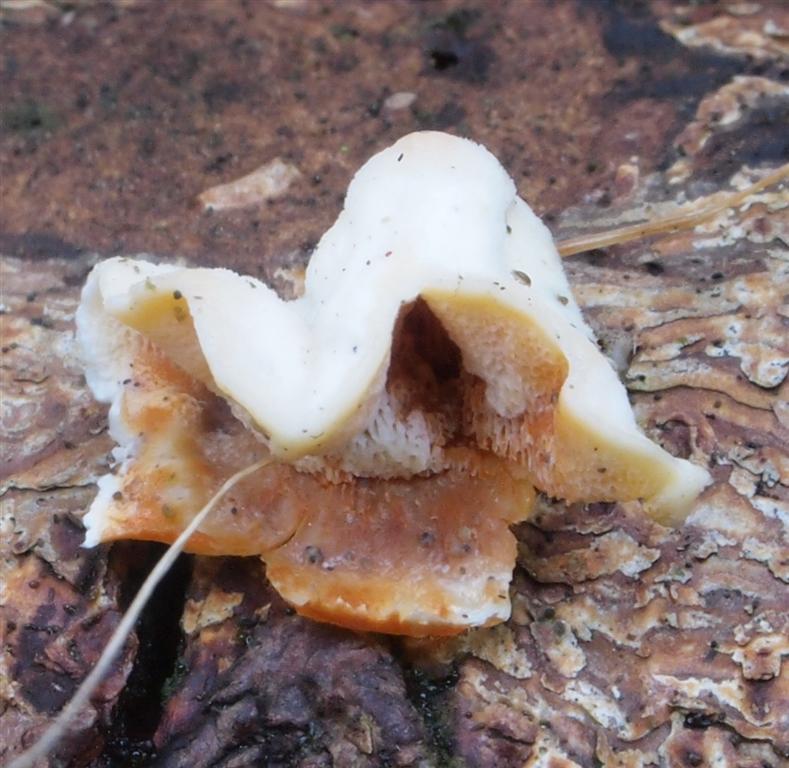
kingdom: Fungi
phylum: Basidiomycota
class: Agaricomycetes
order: Polyporales
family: Incrustoporiaceae
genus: Skeletocutis
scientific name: Skeletocutis amorpha
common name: orange krystalporesvamp
